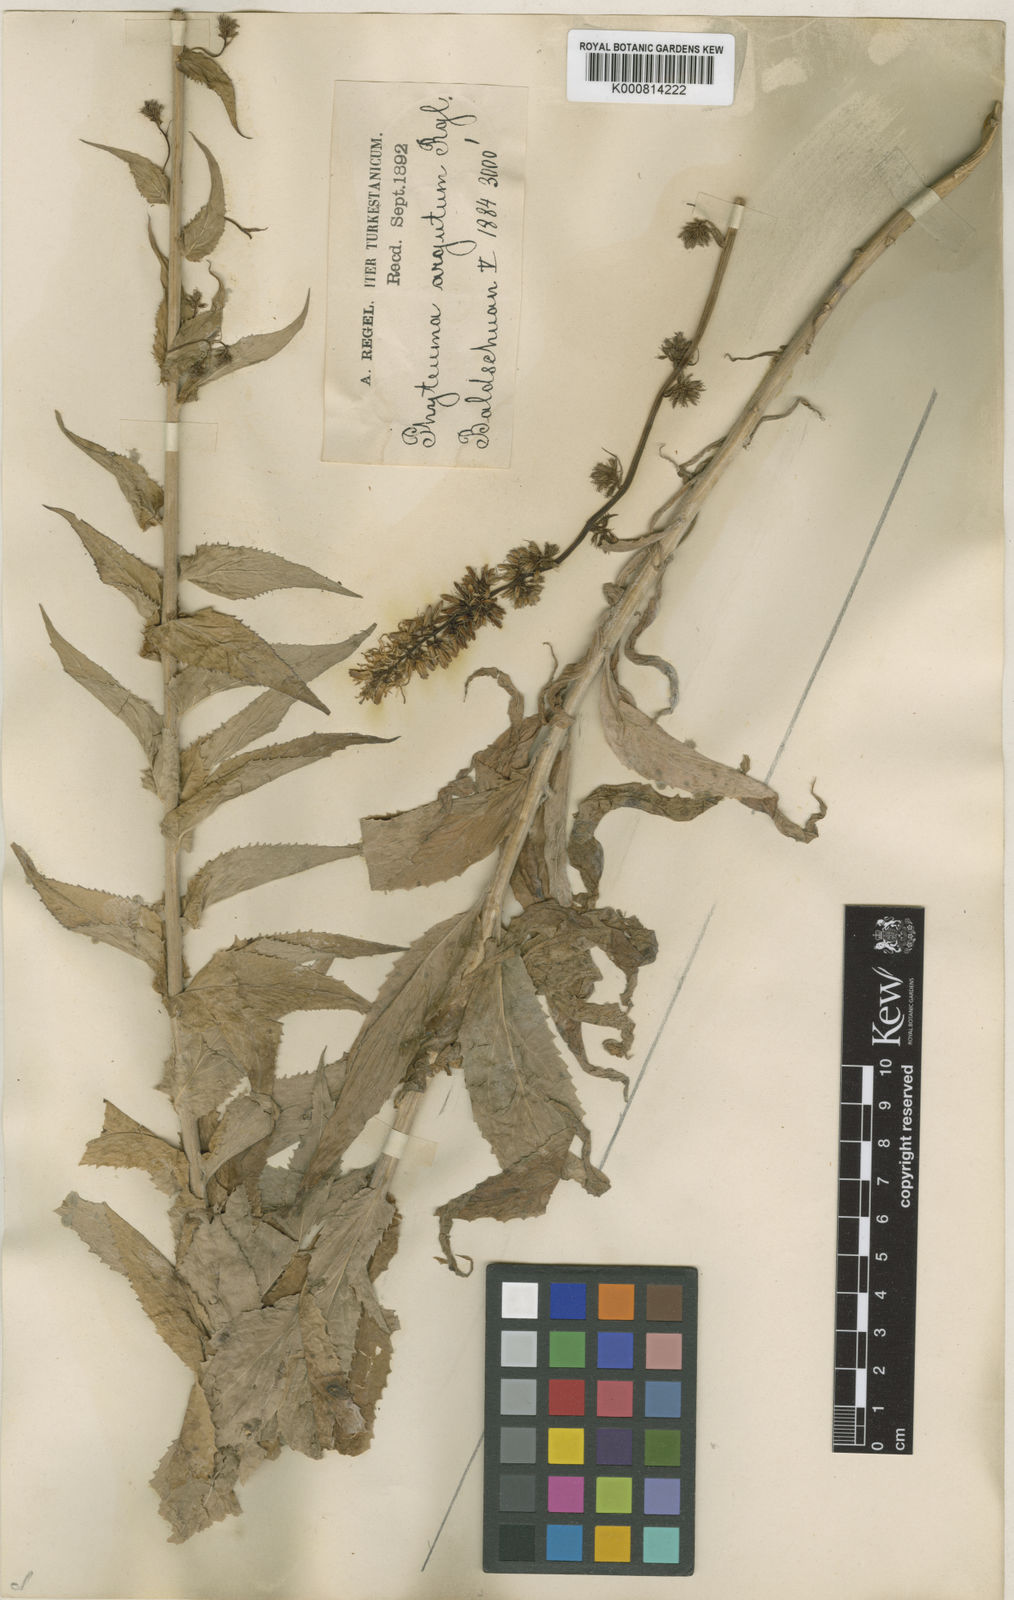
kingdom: Plantae
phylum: Tracheophyta
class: Magnoliopsida
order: Asterales
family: Campanulaceae
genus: Asyneuma
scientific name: Asyneuma argutum
